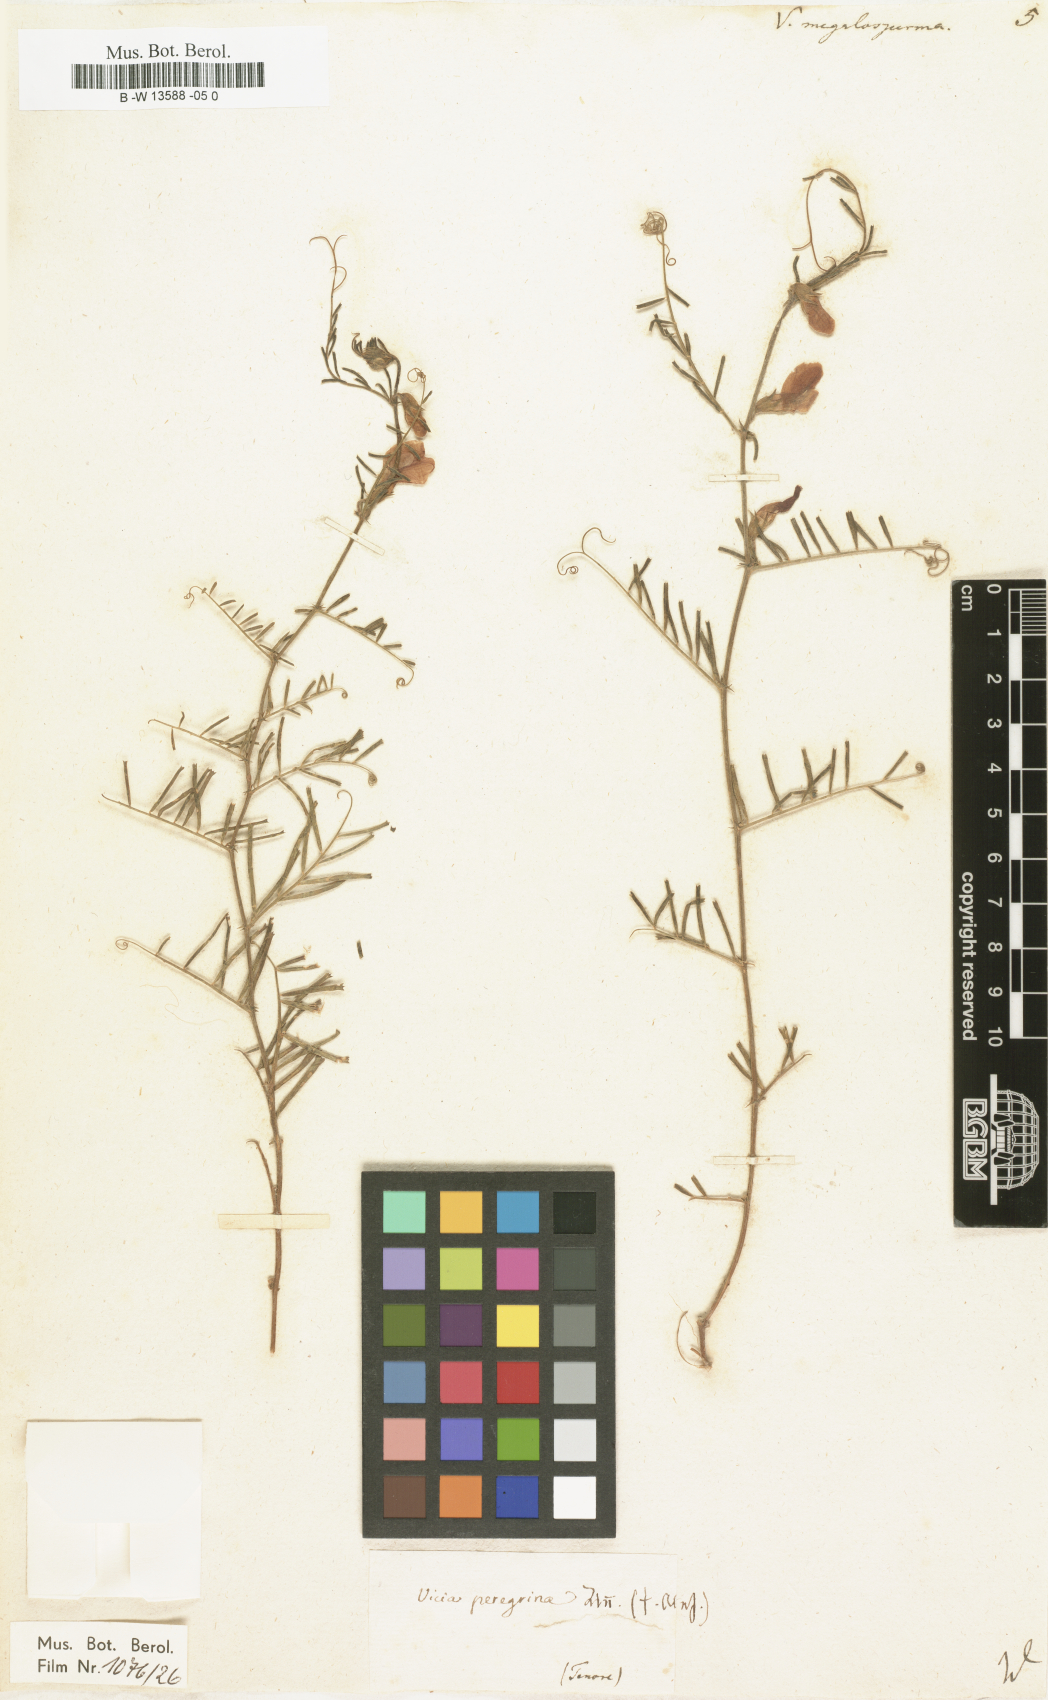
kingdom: Plantae
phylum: Tracheophyta
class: Magnoliopsida
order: Fabales
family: Fabaceae
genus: Vicia
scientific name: Vicia peregrina
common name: Broad-pod vetch
